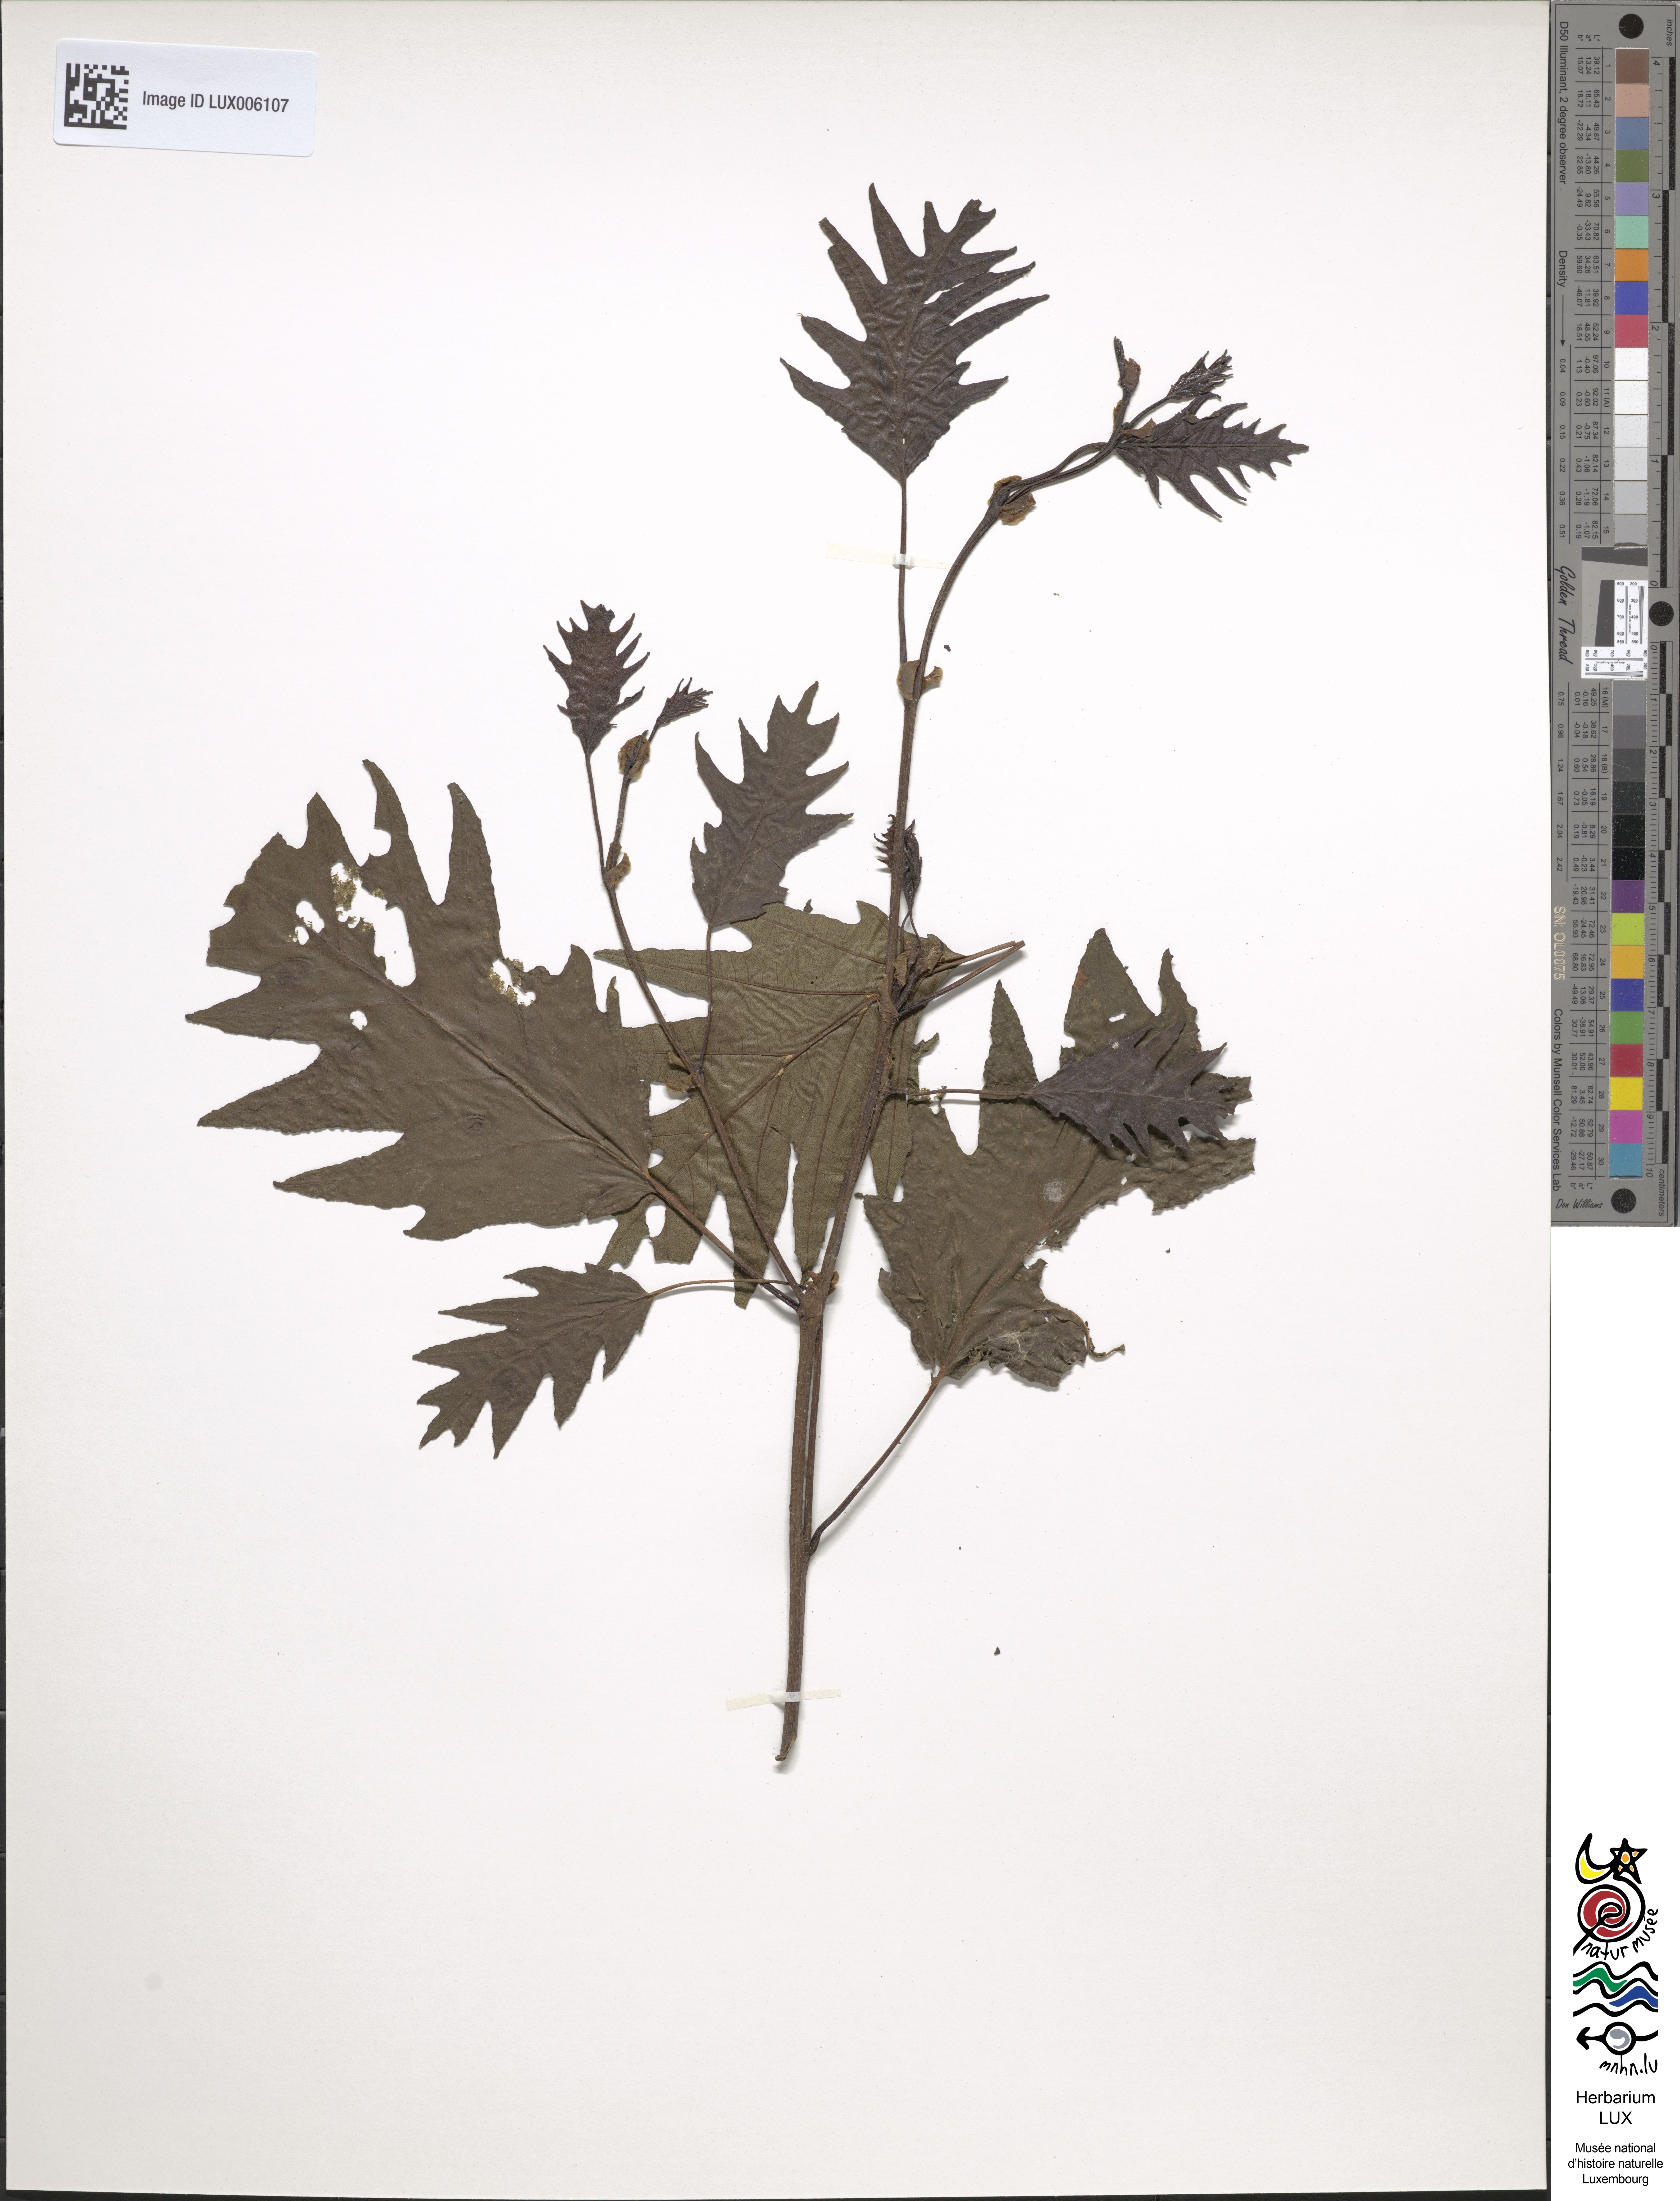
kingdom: Plantae
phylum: Tracheophyta
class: Magnoliopsida
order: Fagales
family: Betulaceae
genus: Alnus
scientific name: Alnus glutinosa
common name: Black alder
